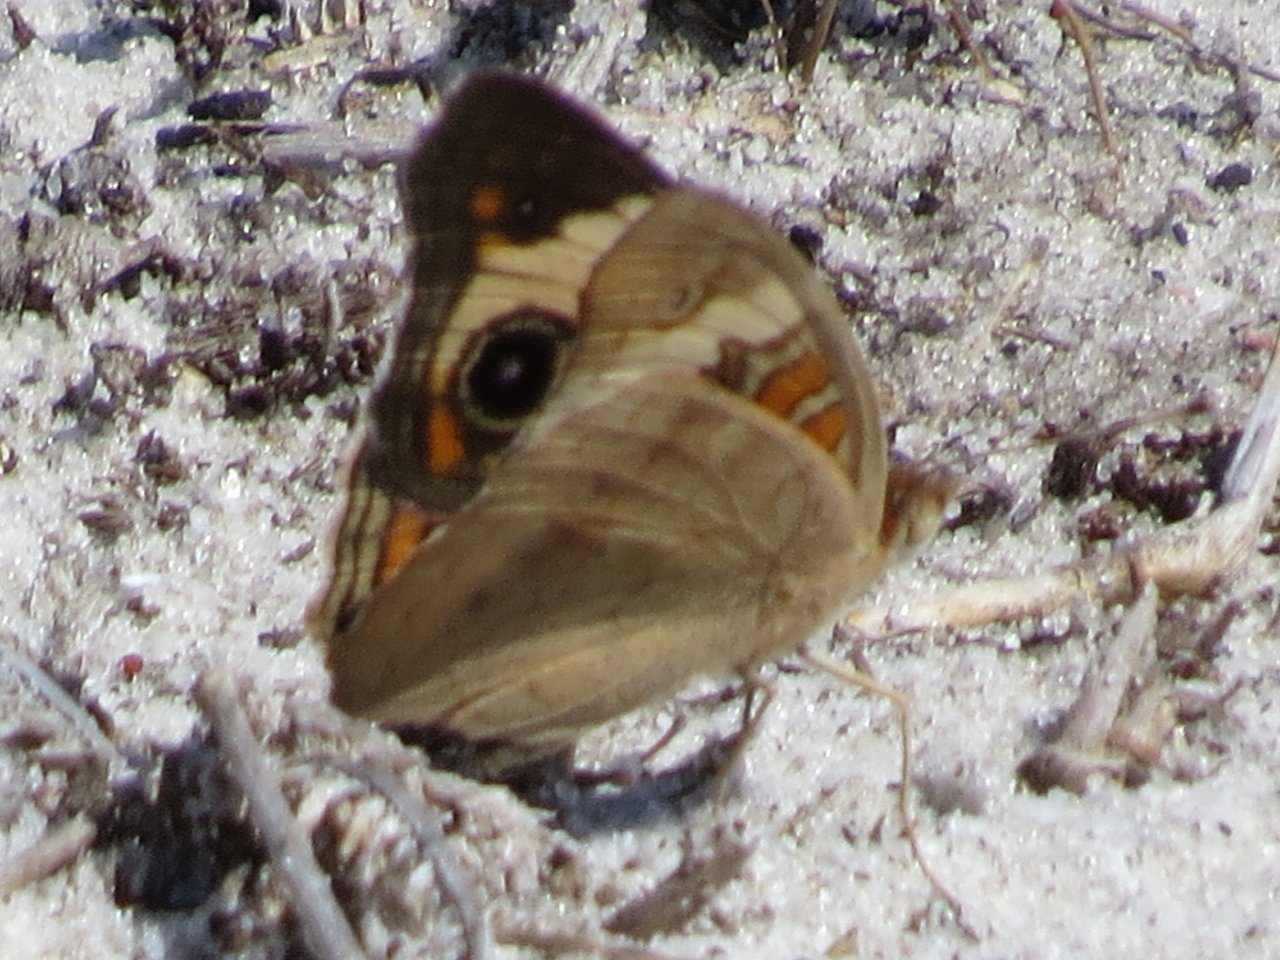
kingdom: Animalia
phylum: Arthropoda
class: Insecta
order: Lepidoptera
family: Nymphalidae
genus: Junonia
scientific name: Junonia coenia
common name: Common Buckeye
